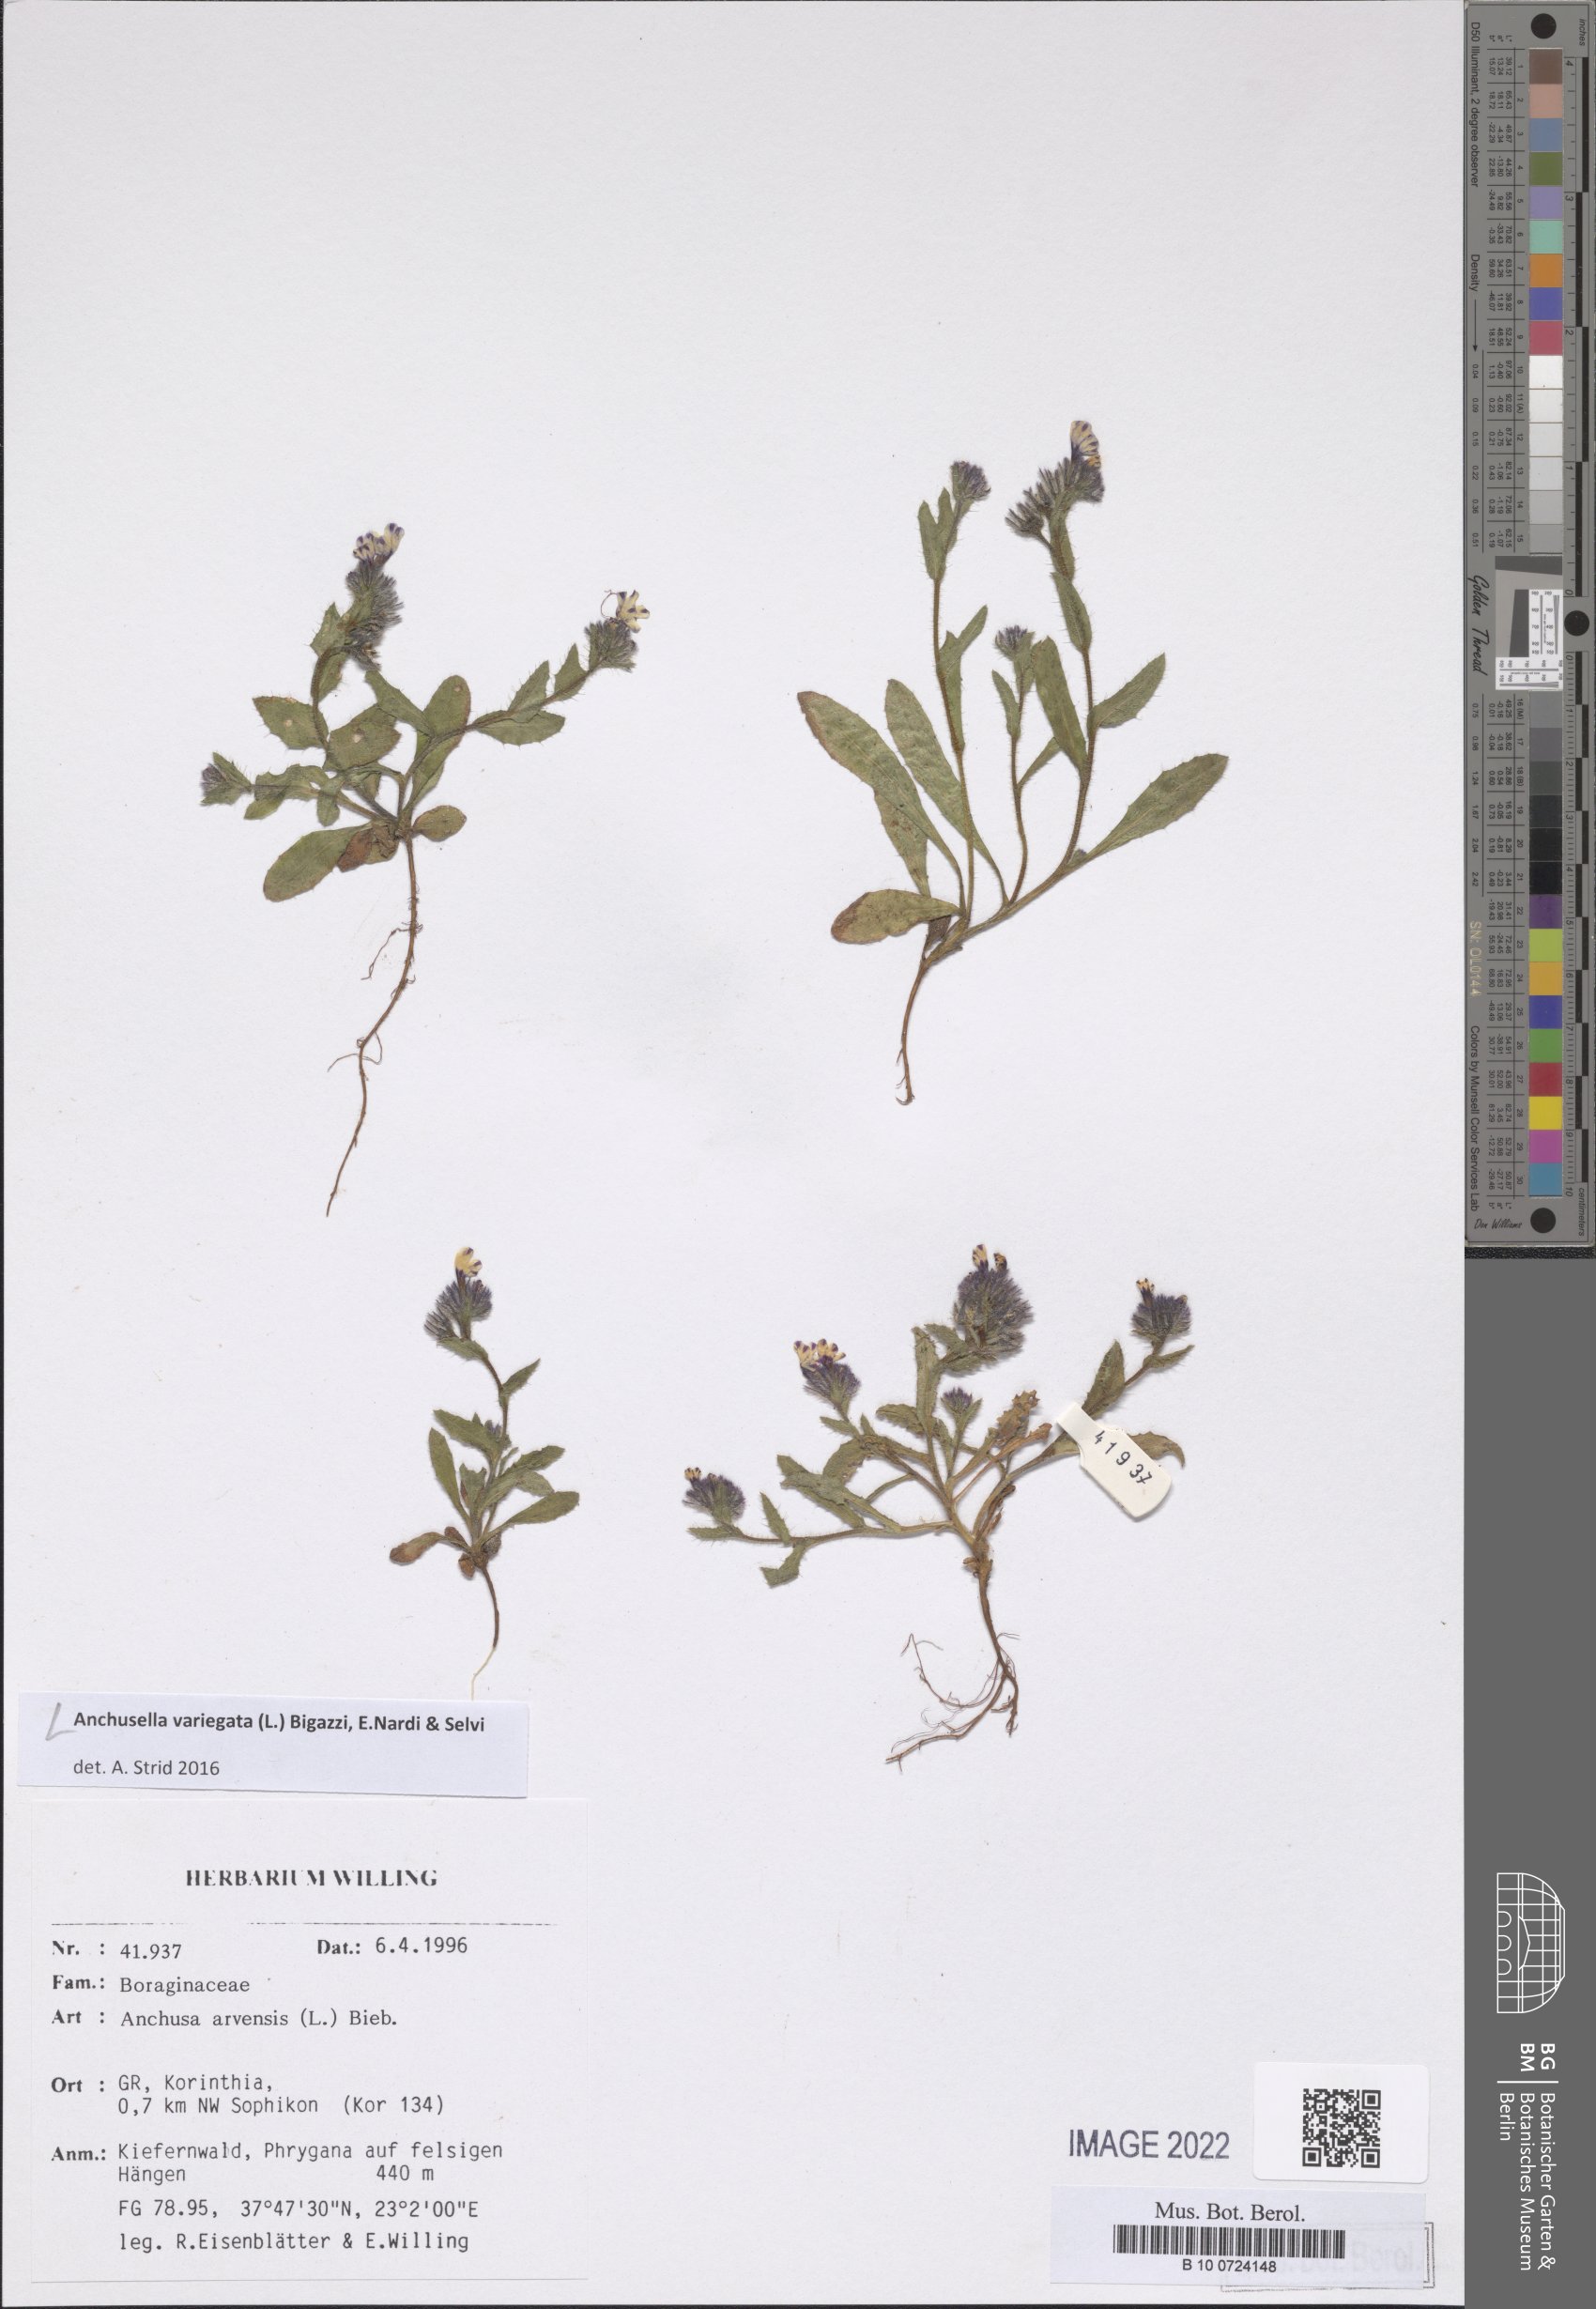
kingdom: Plantae
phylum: Tracheophyta
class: Magnoliopsida
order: Boraginales
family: Boraginaceae
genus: Anchusella
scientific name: Anchusella variegata
